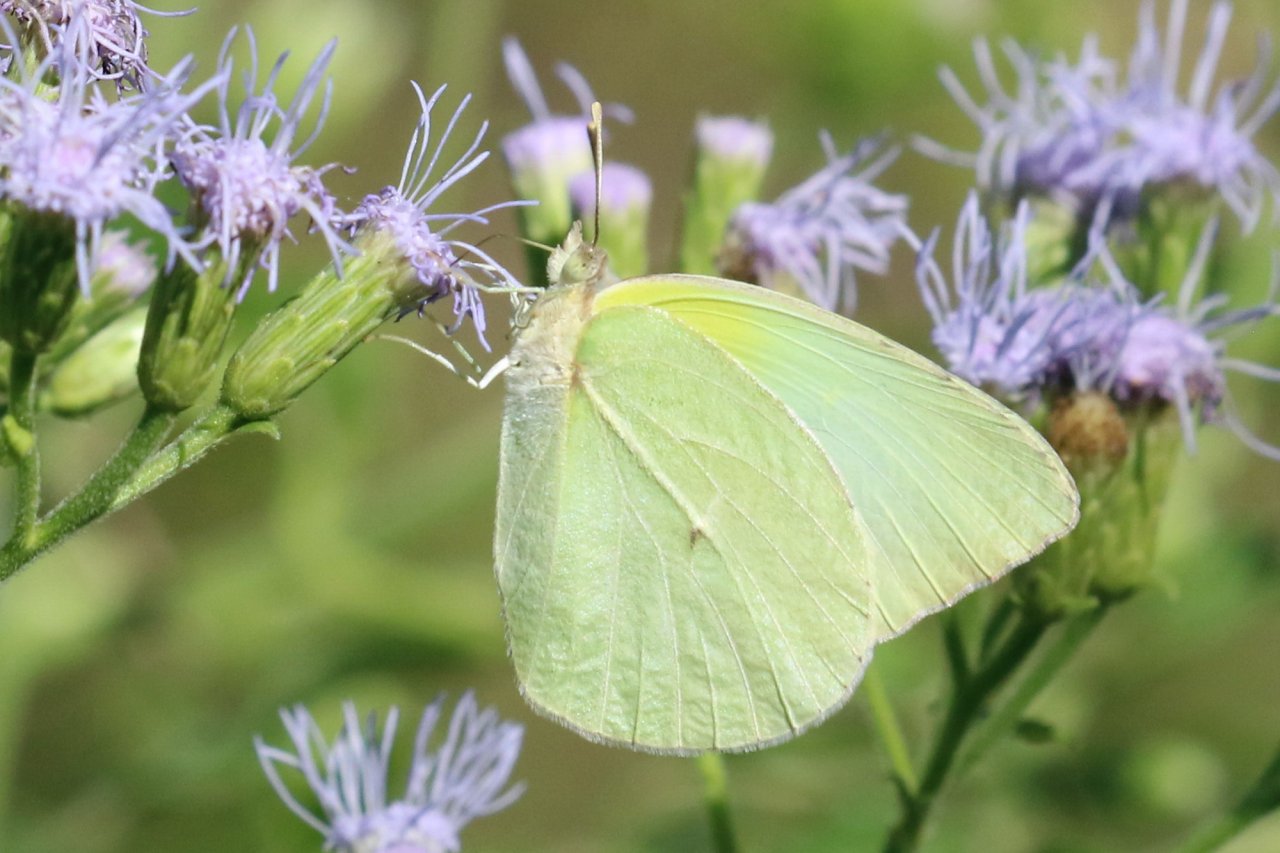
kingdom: Animalia
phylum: Arthropoda
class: Insecta
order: Lepidoptera
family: Pieridae
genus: Kricogonia
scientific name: Kricogonia lyside
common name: Lyside Sulphur
